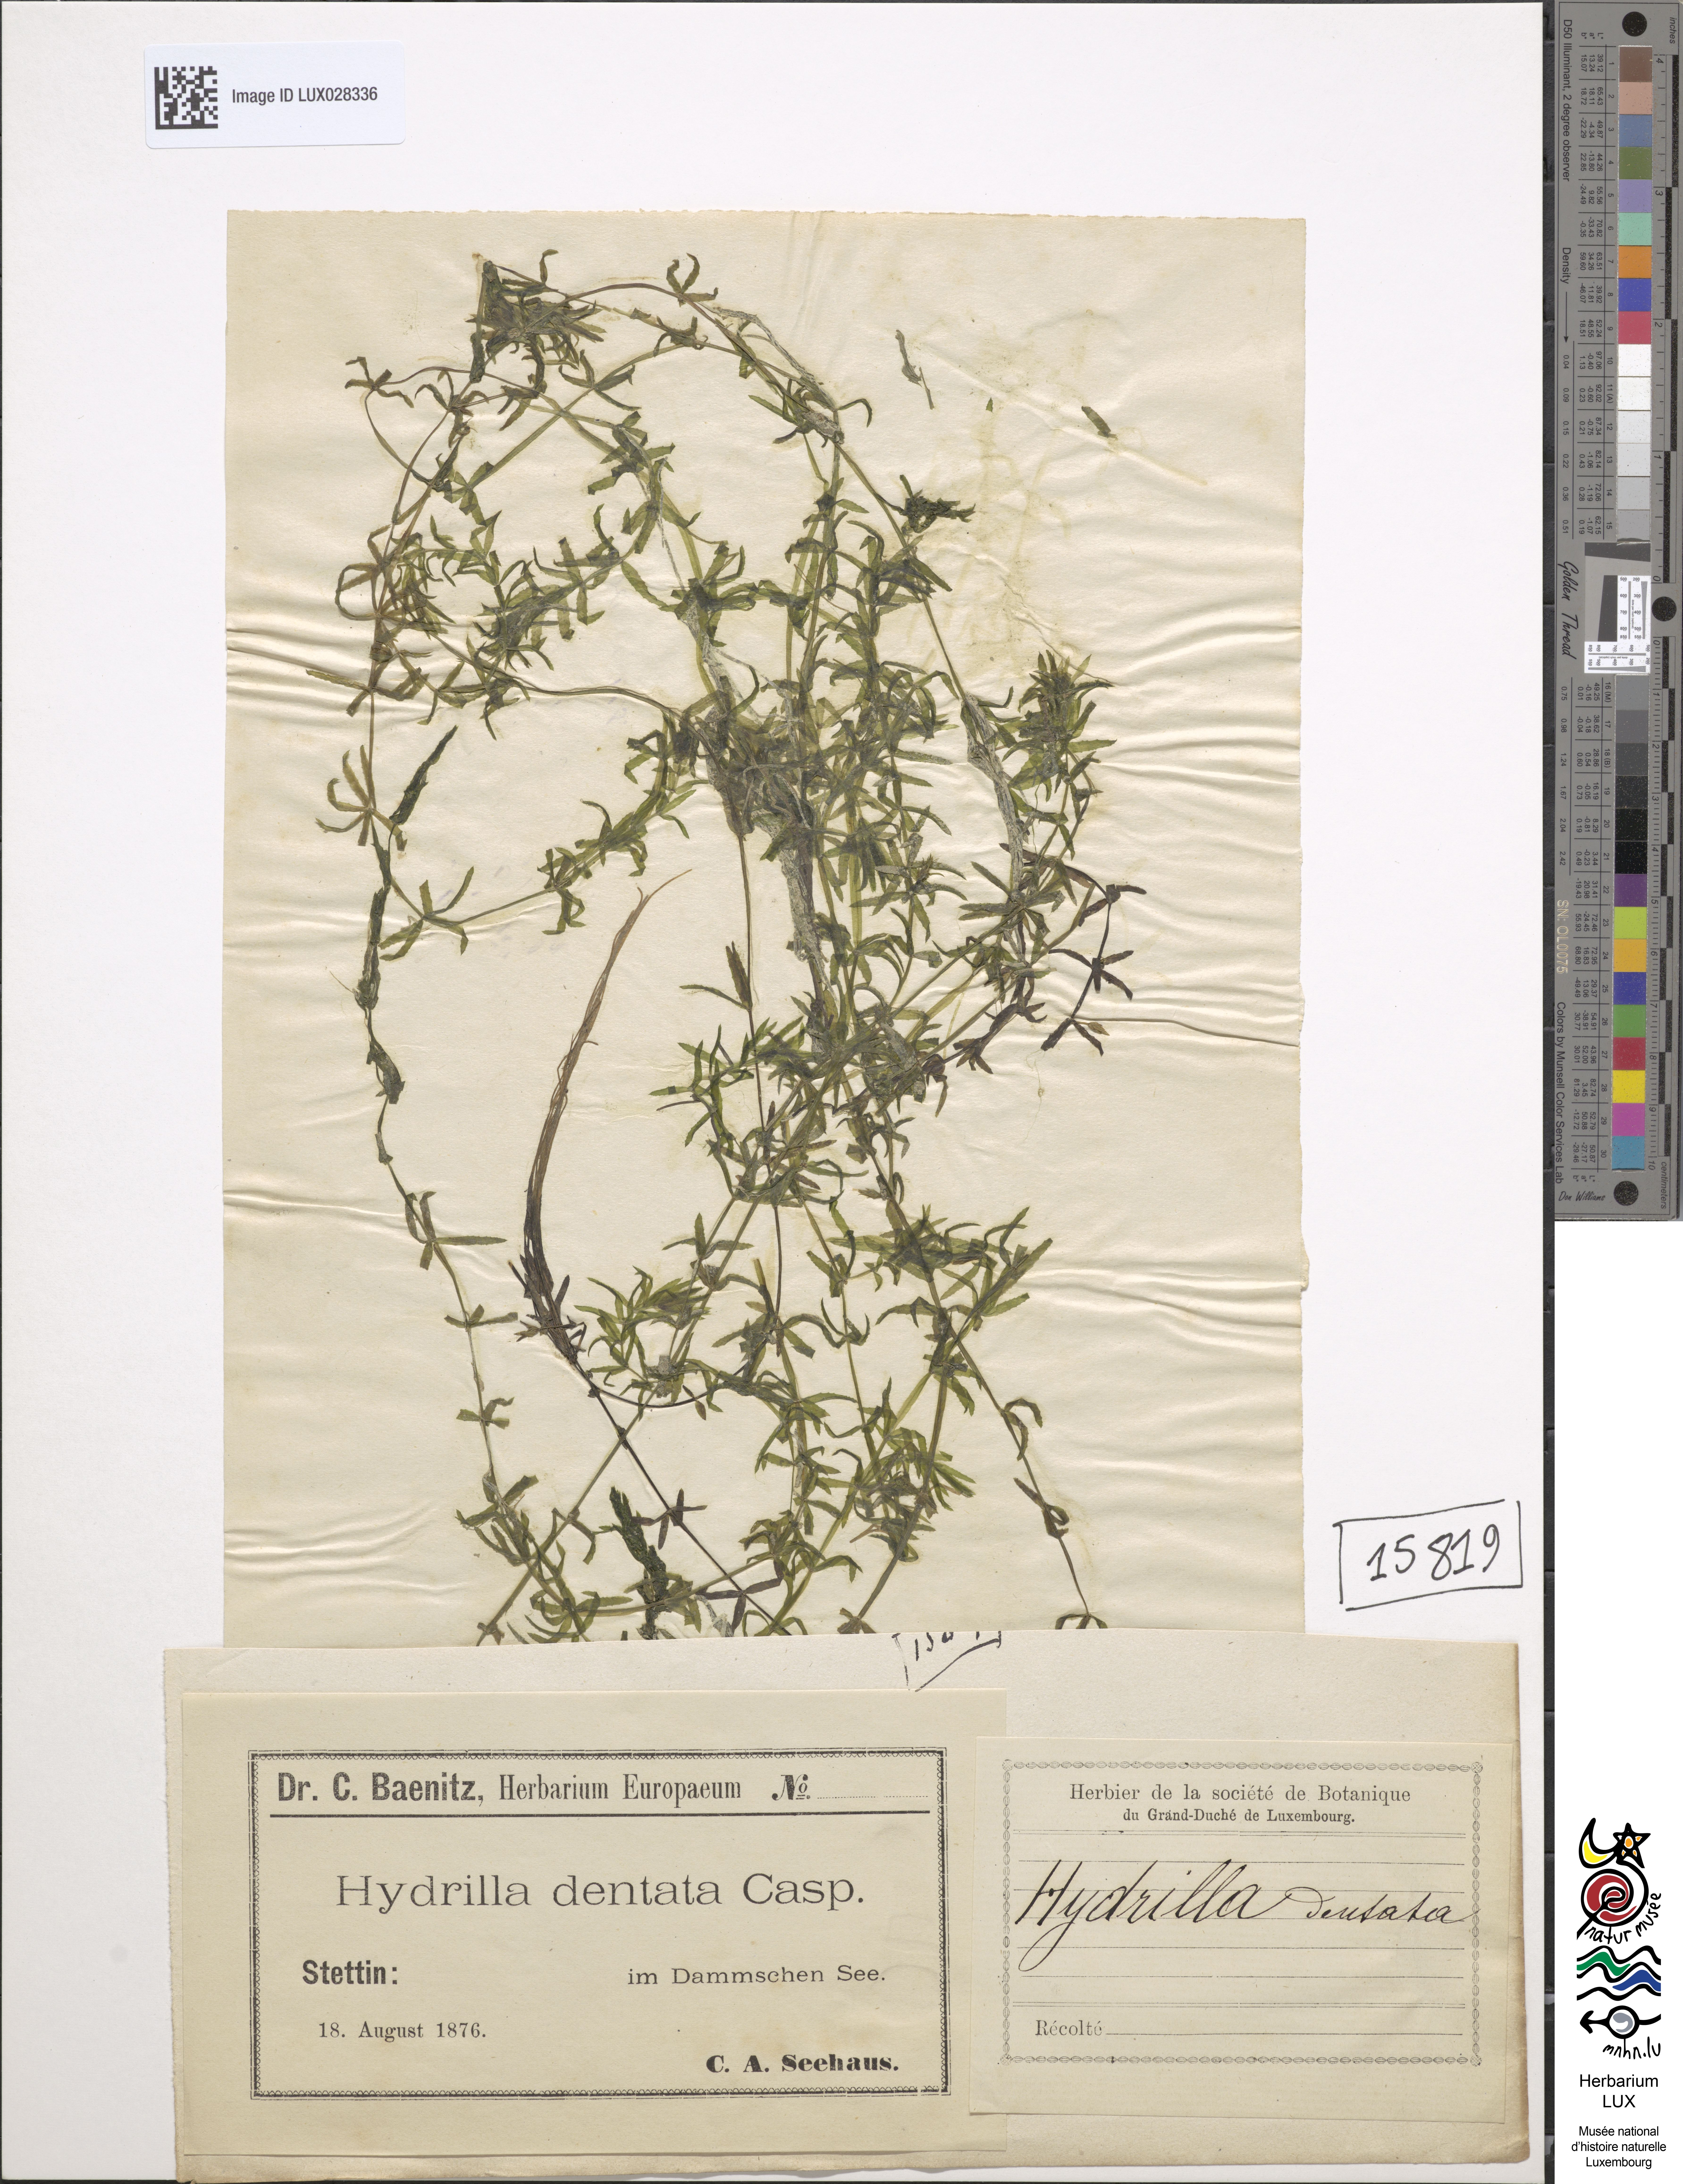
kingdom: Plantae
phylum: Tracheophyta
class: Liliopsida
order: Alismatales
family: Hydrocharitaceae
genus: Hydrilla
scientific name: Hydrilla verticillata
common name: Florida-elodea
